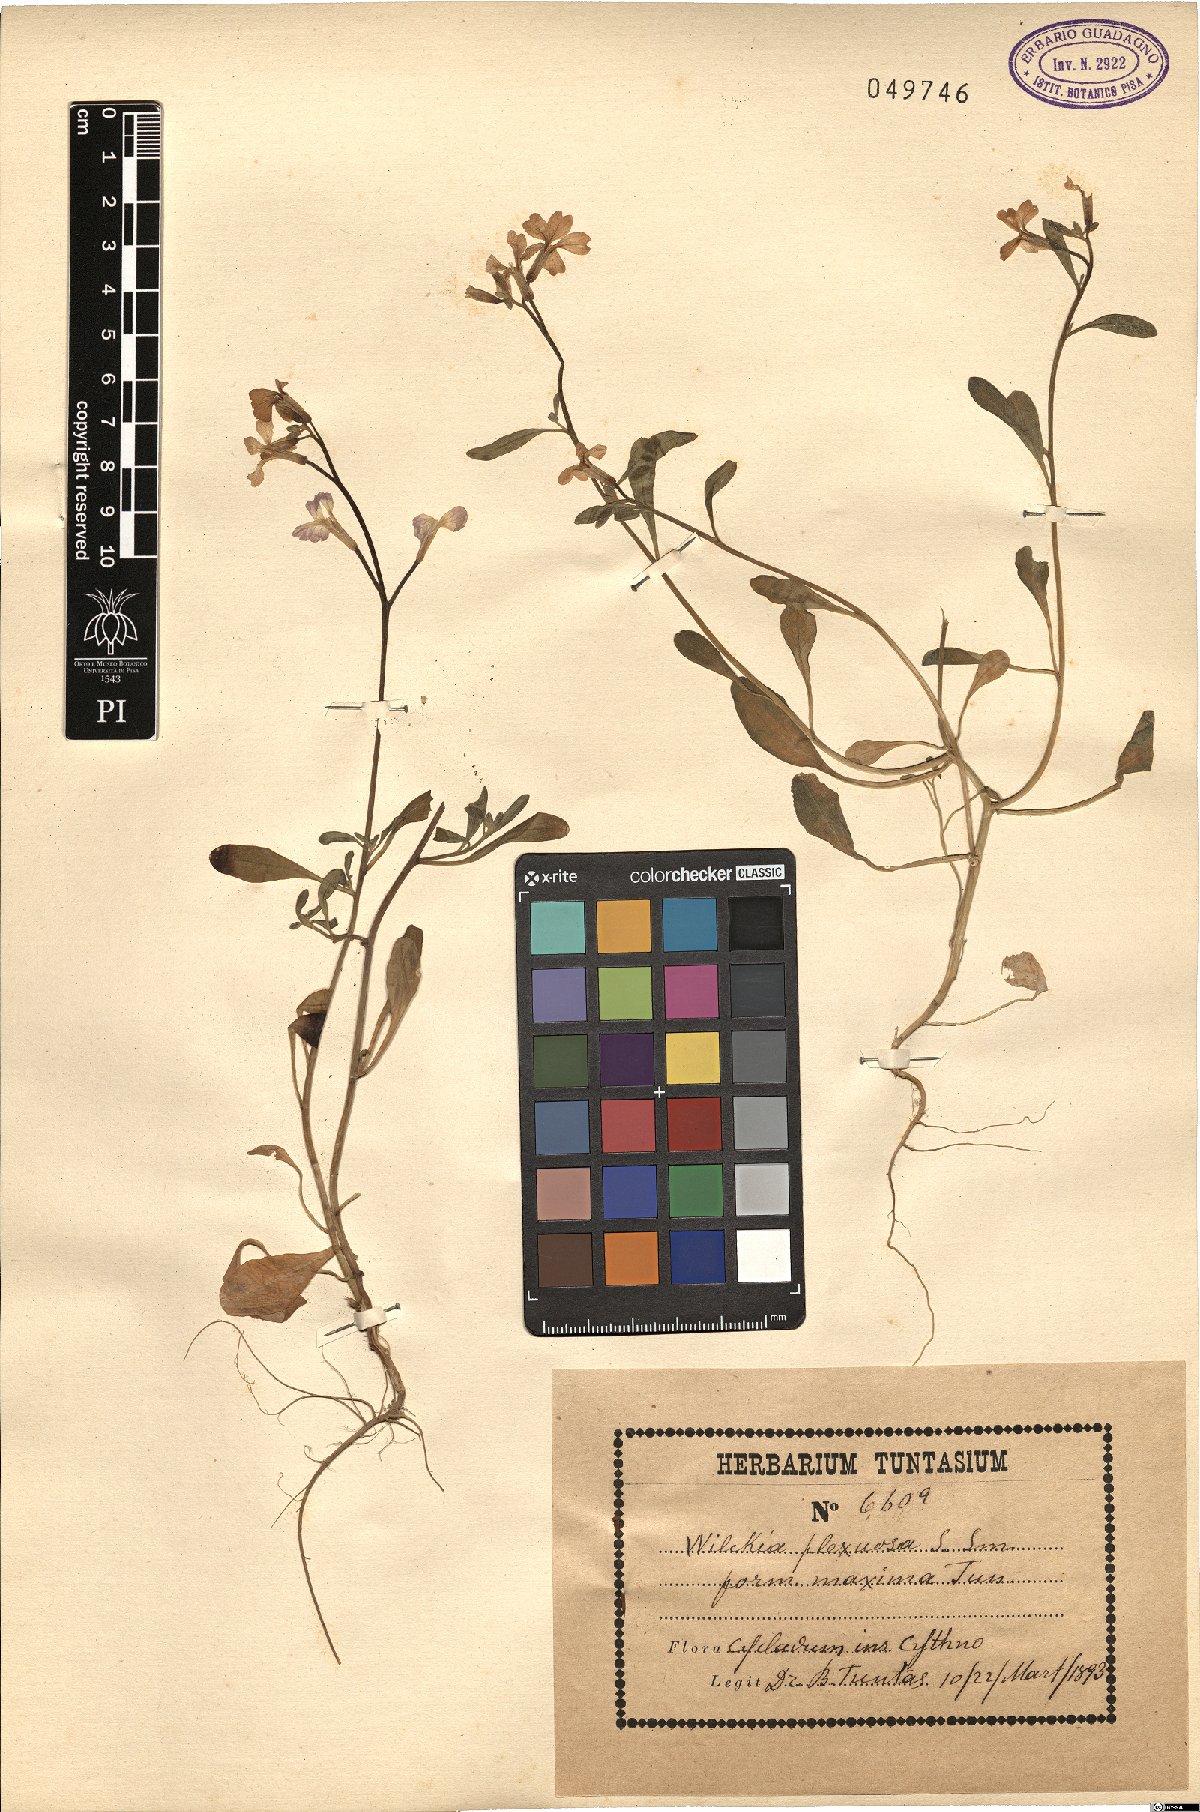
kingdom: Plantae
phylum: Tracheophyta
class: Magnoliopsida
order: Brassicales
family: Brassicaceae
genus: Malcolmia
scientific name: Malcolmia flexuosa
